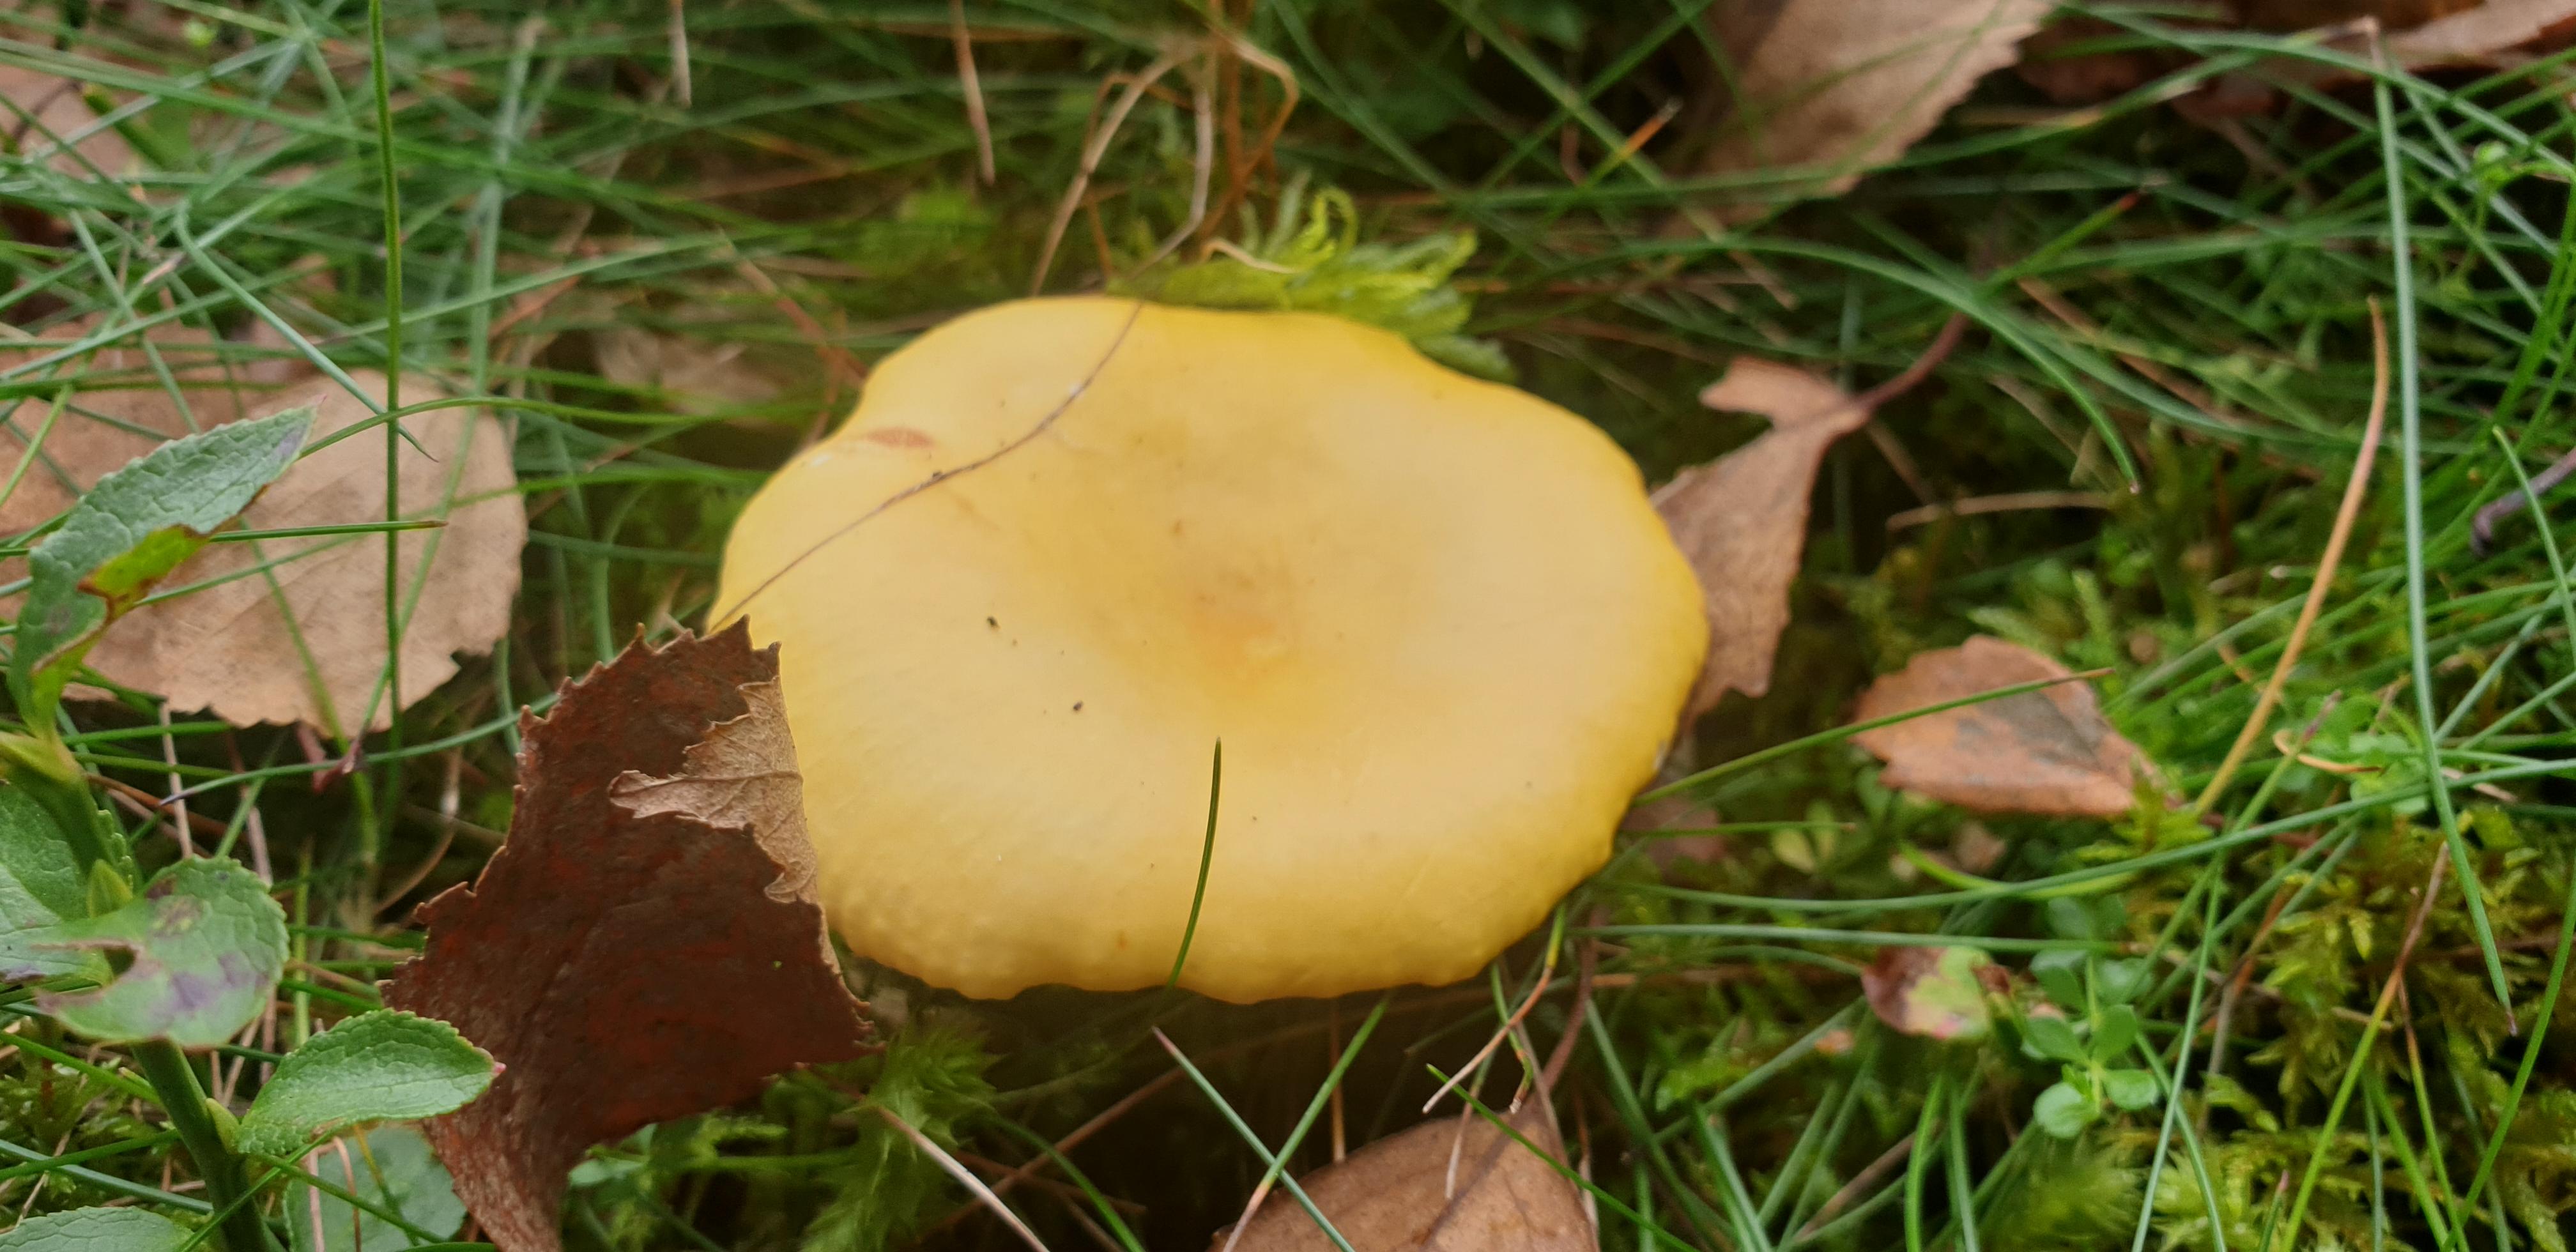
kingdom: Fungi
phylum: Basidiomycota
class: Agaricomycetes
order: Russulales
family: Russulaceae
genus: Russula
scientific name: Russula claroflava
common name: birke-skørhat
